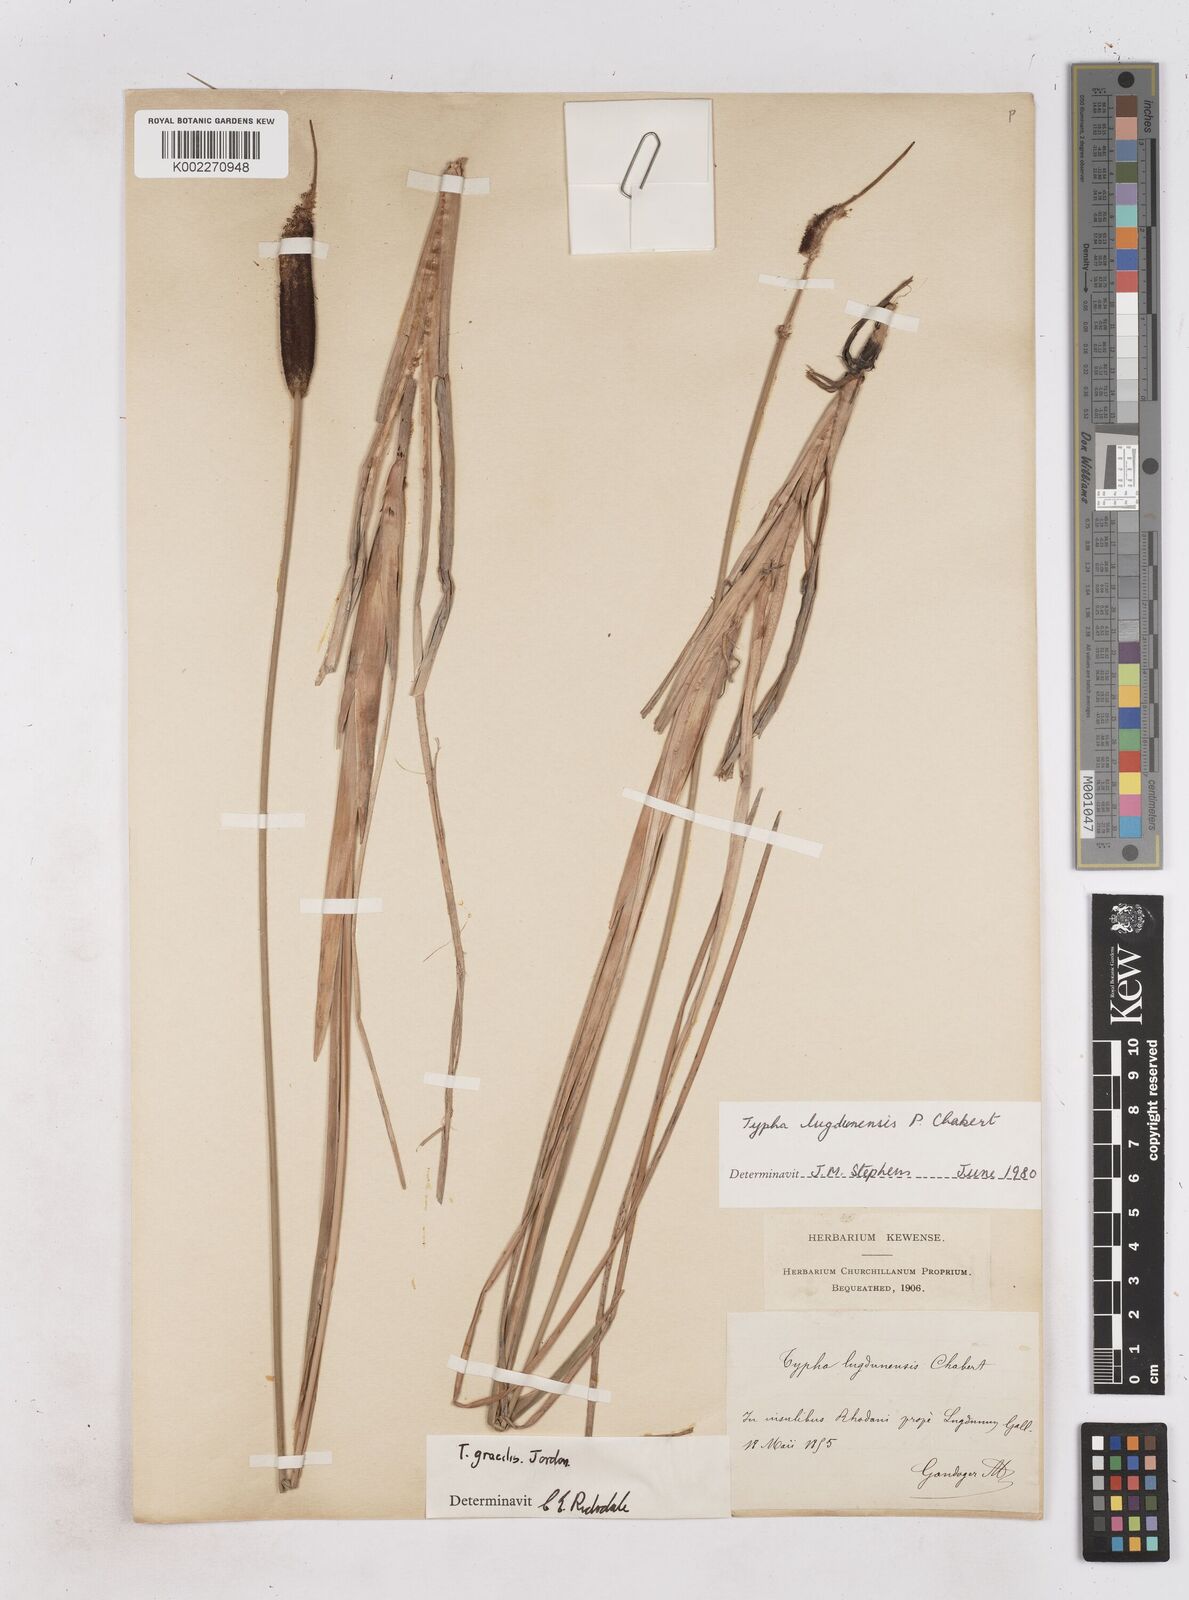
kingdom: Plantae
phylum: Tracheophyta
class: Liliopsida
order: Poales
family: Typhaceae
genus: Typha
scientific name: Typha lugdunensis
